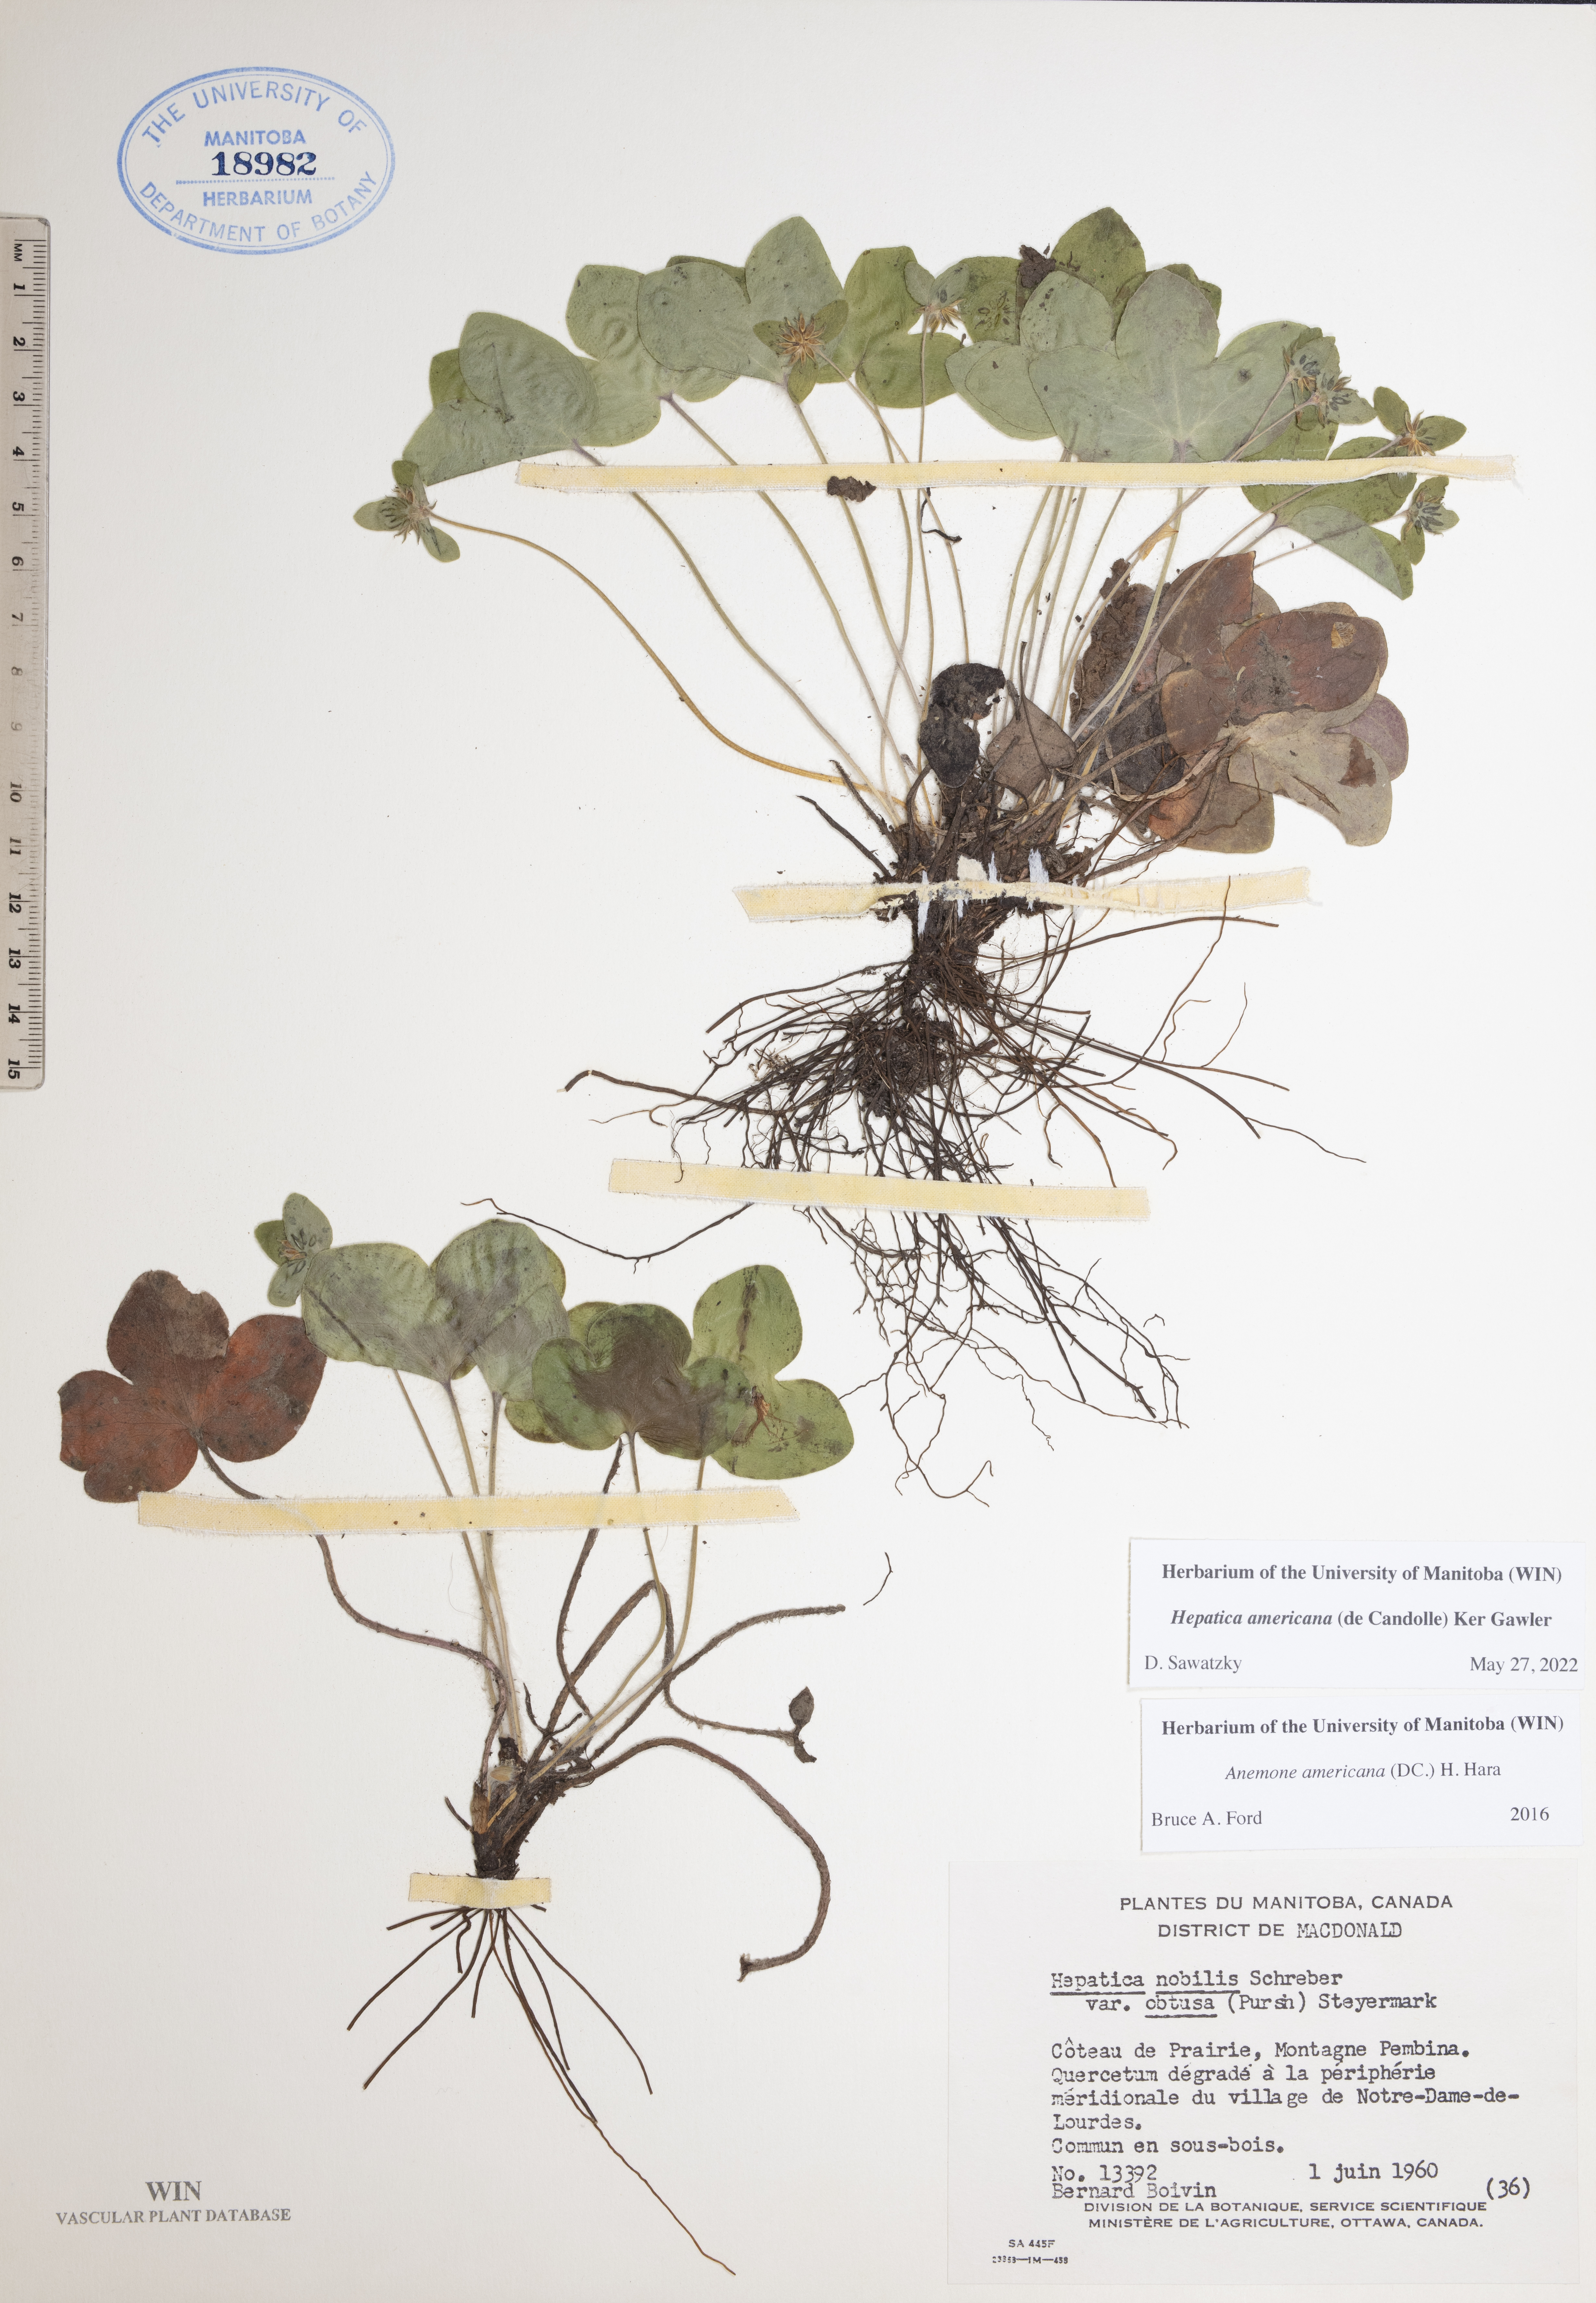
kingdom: Plantae
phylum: Tracheophyta
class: Magnoliopsida
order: Ranunculales
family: Ranunculaceae
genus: Hepatica
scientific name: Hepatica americana
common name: American hepatica
